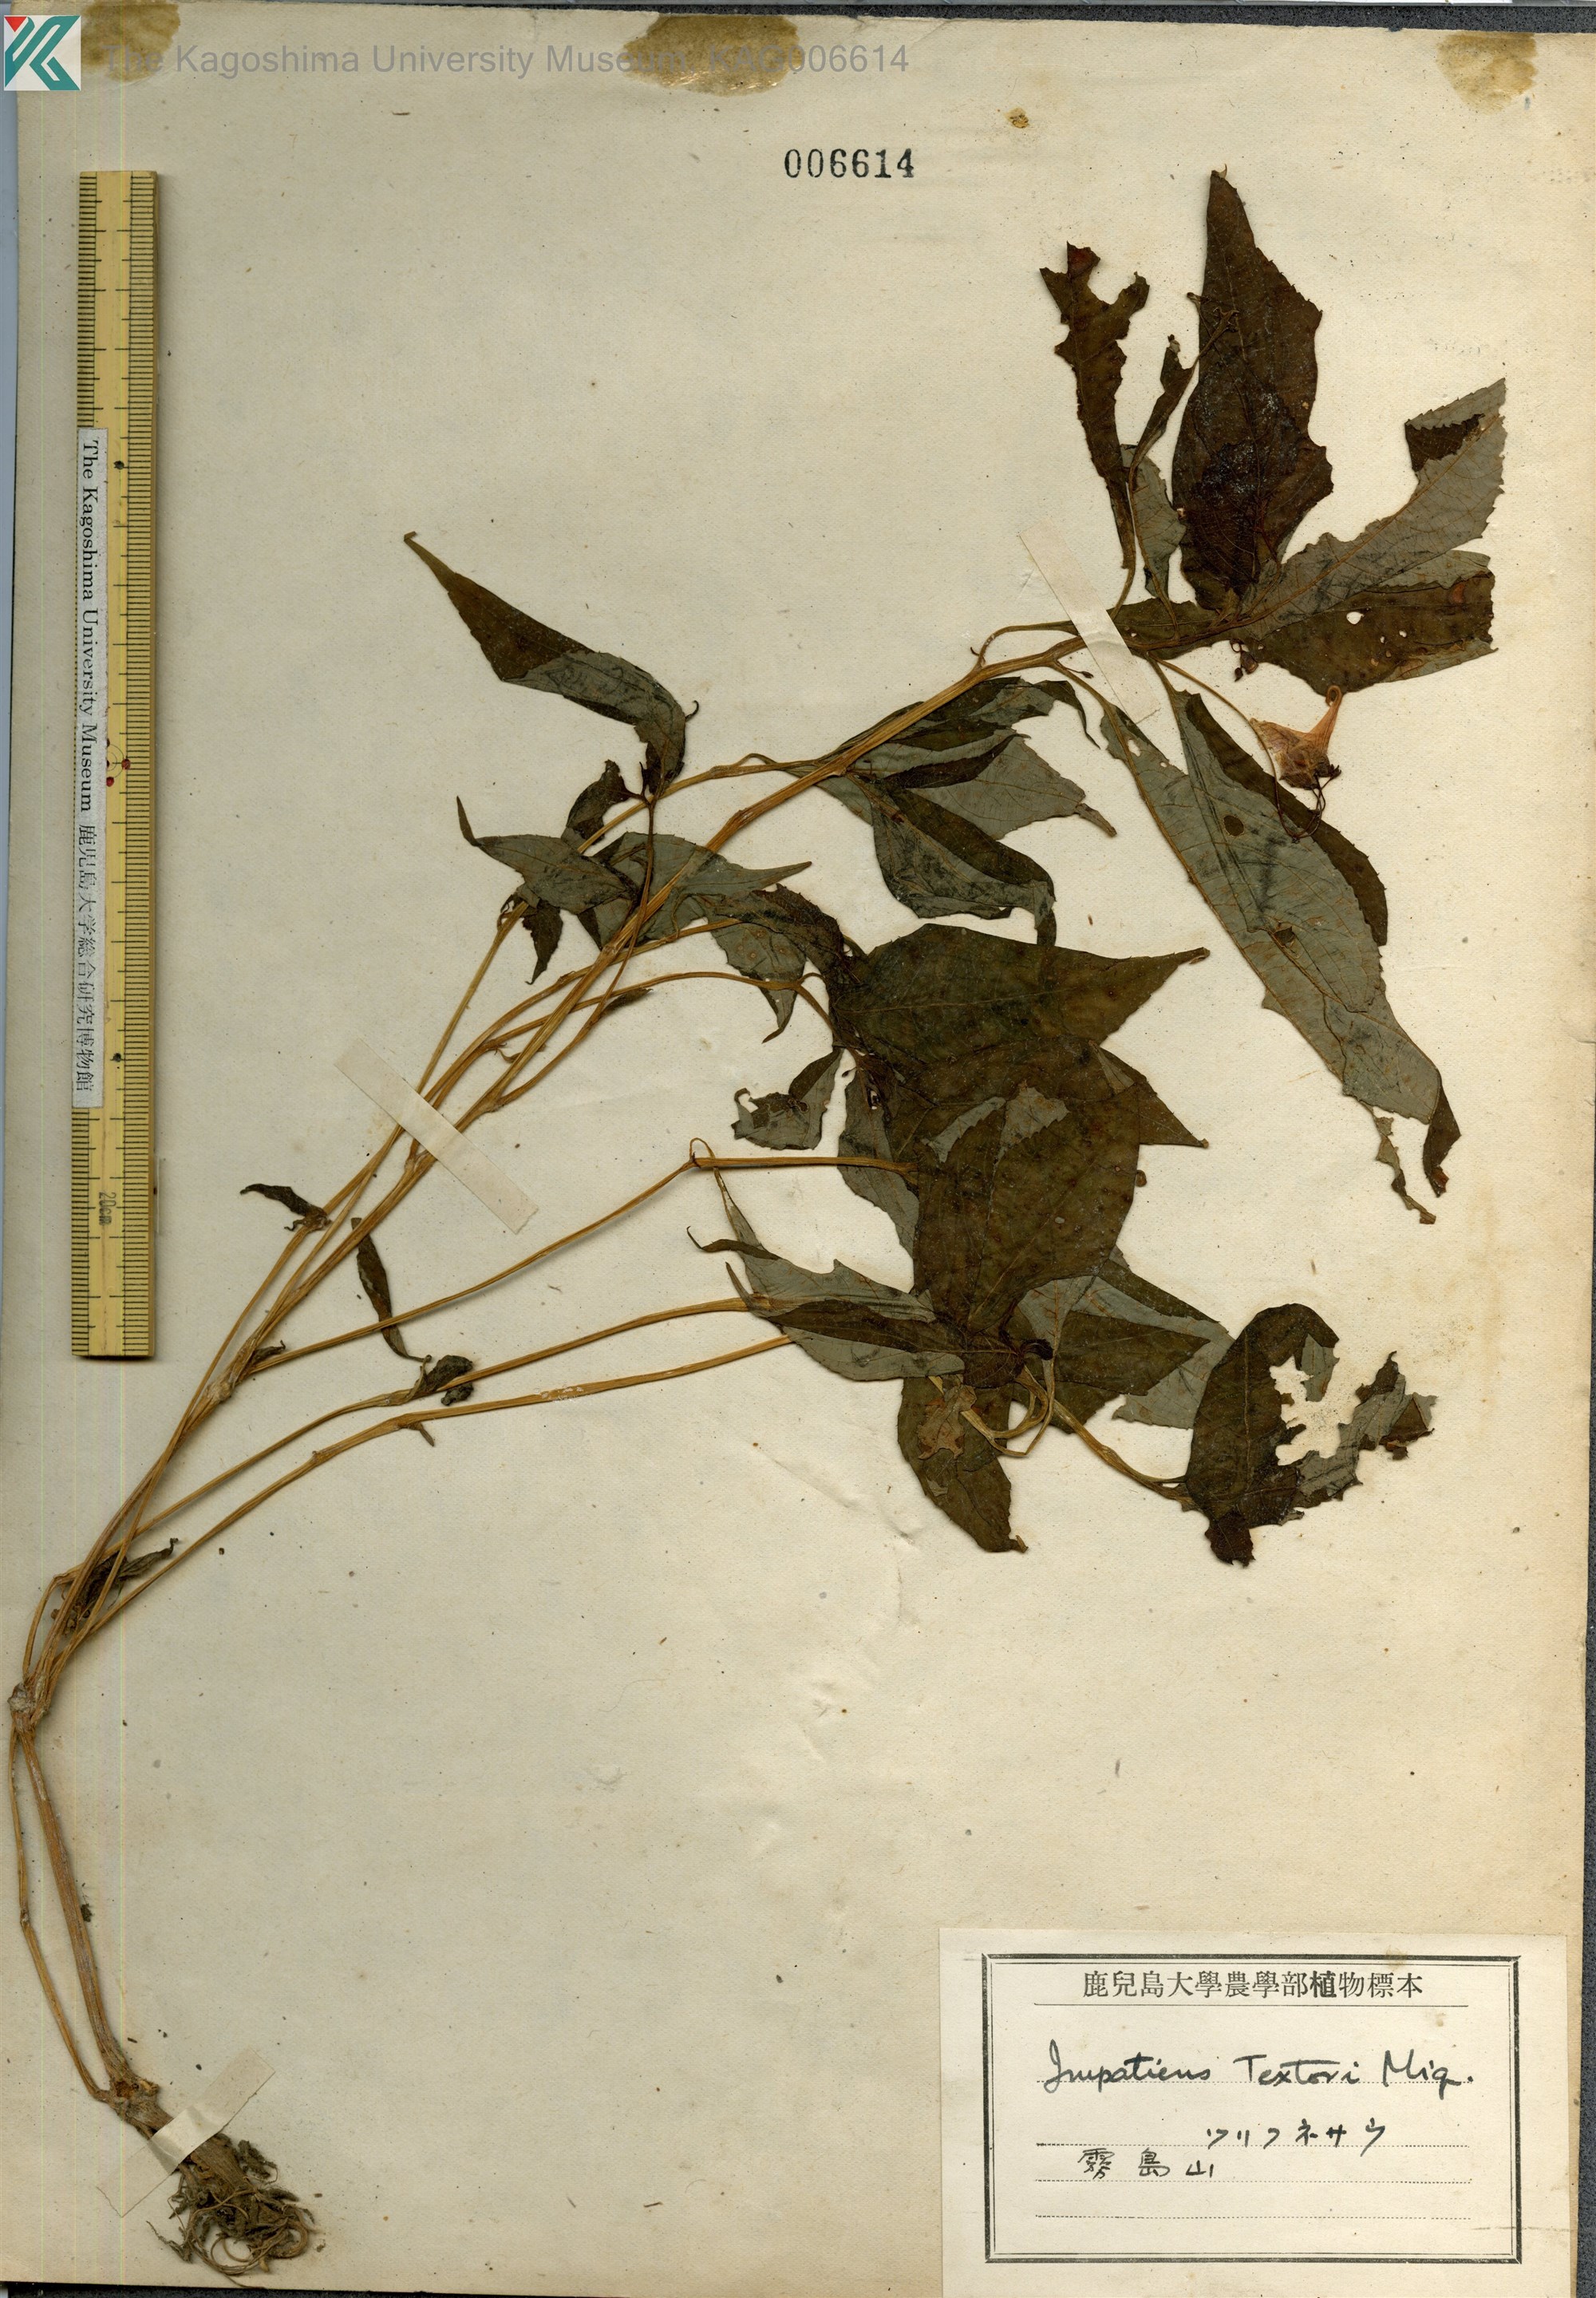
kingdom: Plantae
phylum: Tracheophyta
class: Magnoliopsida
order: Ericales
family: Balsaminaceae
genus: Impatiens
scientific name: Impatiens textorii
